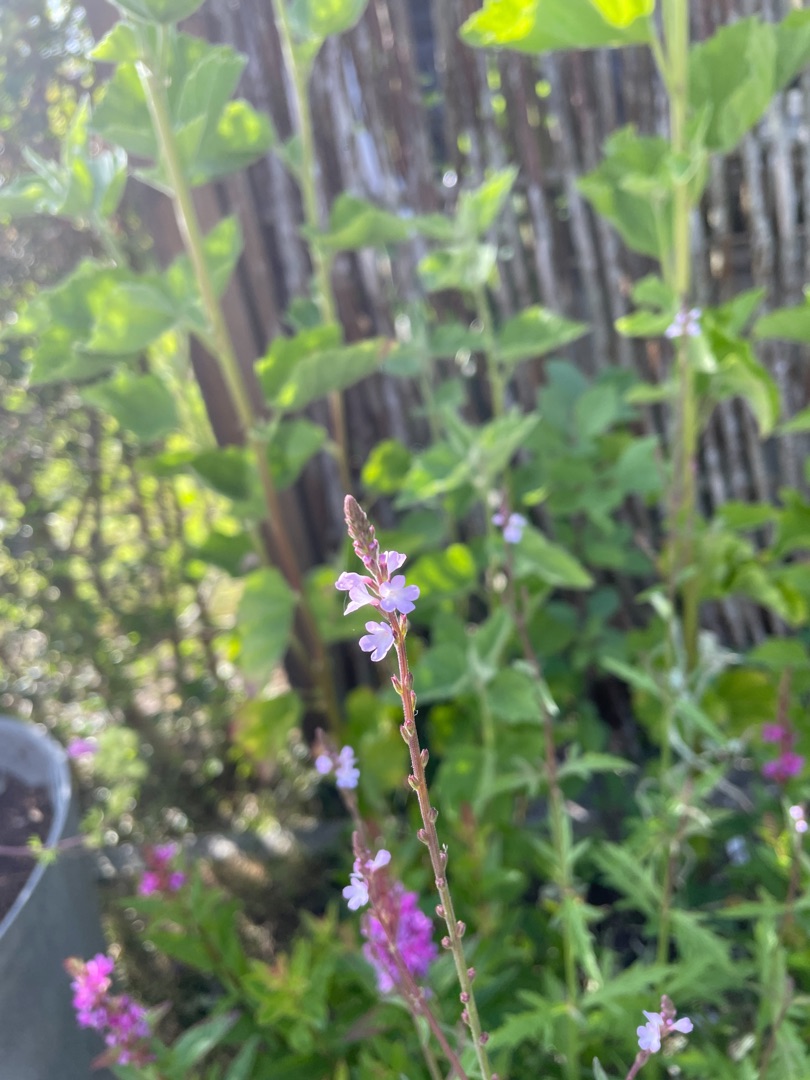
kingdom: Plantae
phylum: Tracheophyta
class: Magnoliopsida
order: Lamiales
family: Verbenaceae
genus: Verbena
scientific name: Verbena officinalis
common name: Læge-jernurt
